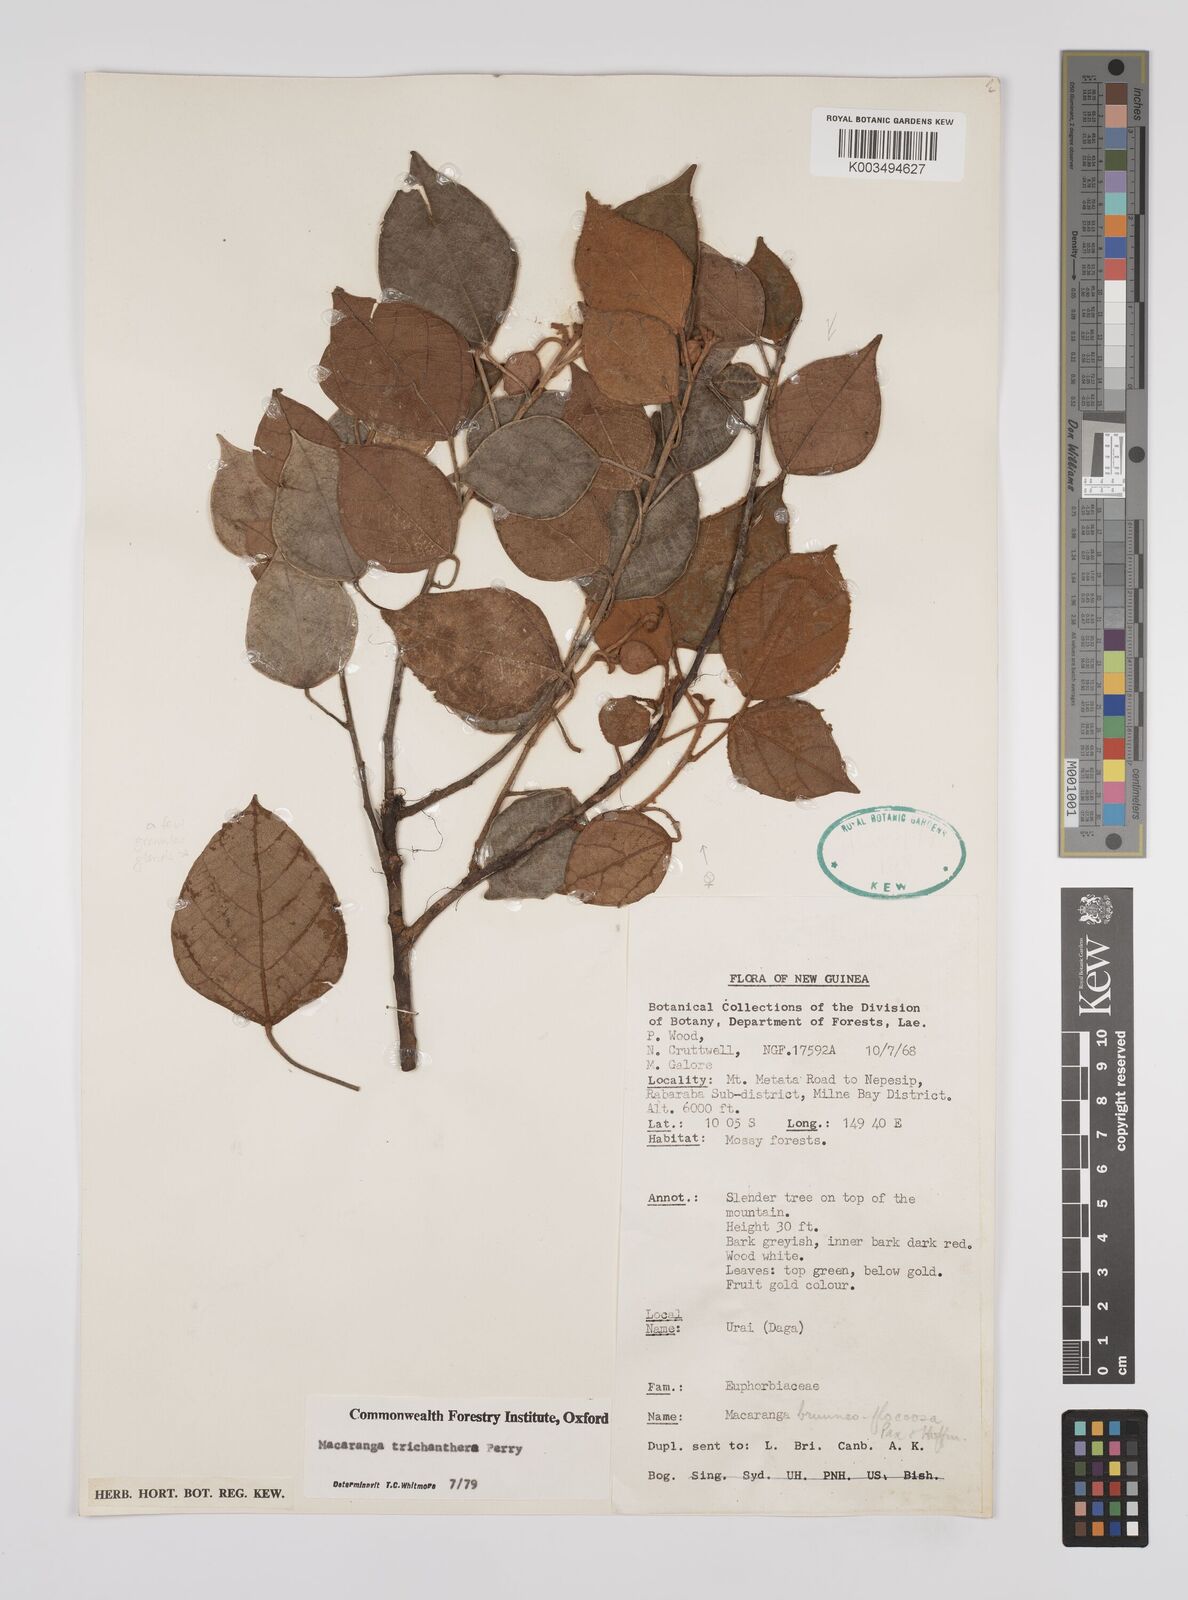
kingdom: Plantae
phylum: Tracheophyta
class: Magnoliopsida
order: Malpighiales
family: Euphorbiaceae
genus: Macaranga
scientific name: Macaranga trichanthera
